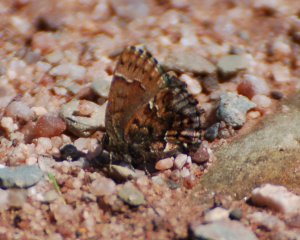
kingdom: Animalia
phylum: Arthropoda
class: Insecta
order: Lepidoptera
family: Lycaenidae
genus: Incisalia
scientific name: Incisalia lanoraieensis
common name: Bog Elfin
